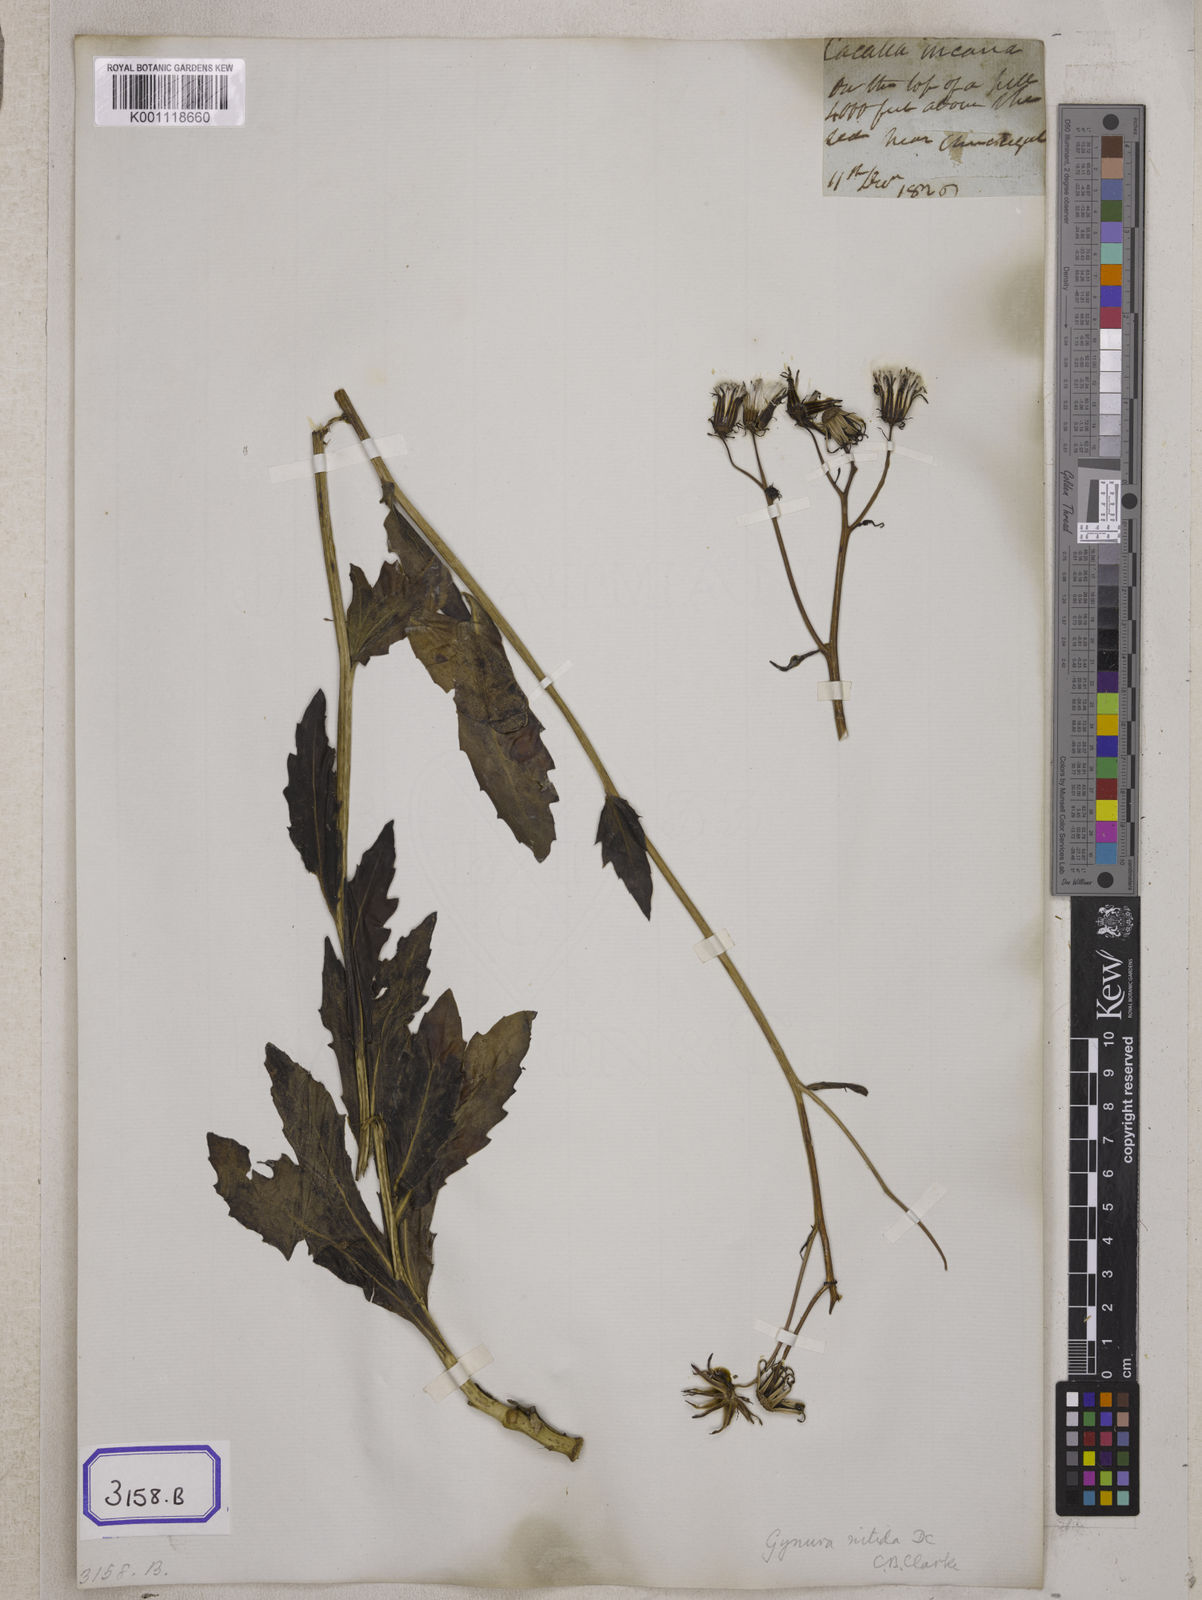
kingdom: Plantae
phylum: Tracheophyta
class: Magnoliopsida
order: Asterales
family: Asteraceae
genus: Gynura
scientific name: Gynura divaricata
